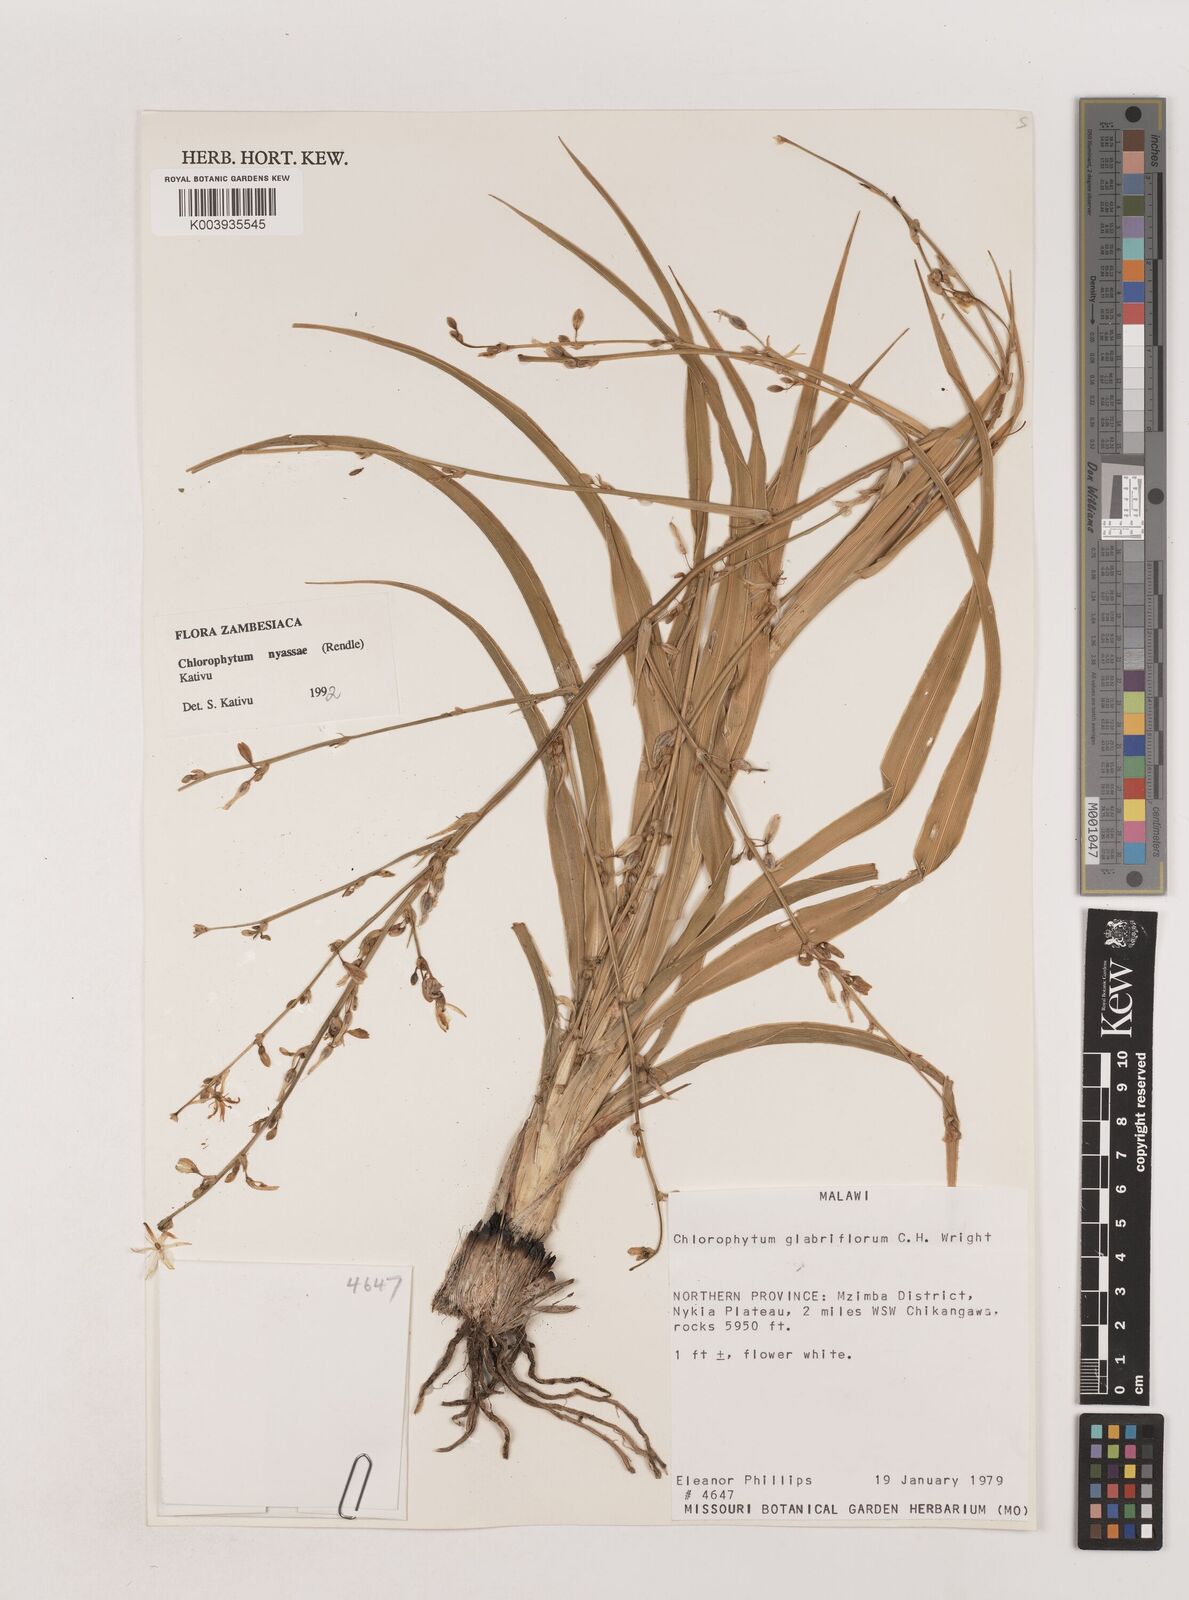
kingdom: Plantae
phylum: Tracheophyta
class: Liliopsida
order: Asparagales
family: Asparagaceae
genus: Chlorophytum
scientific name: Chlorophytum nyasae
